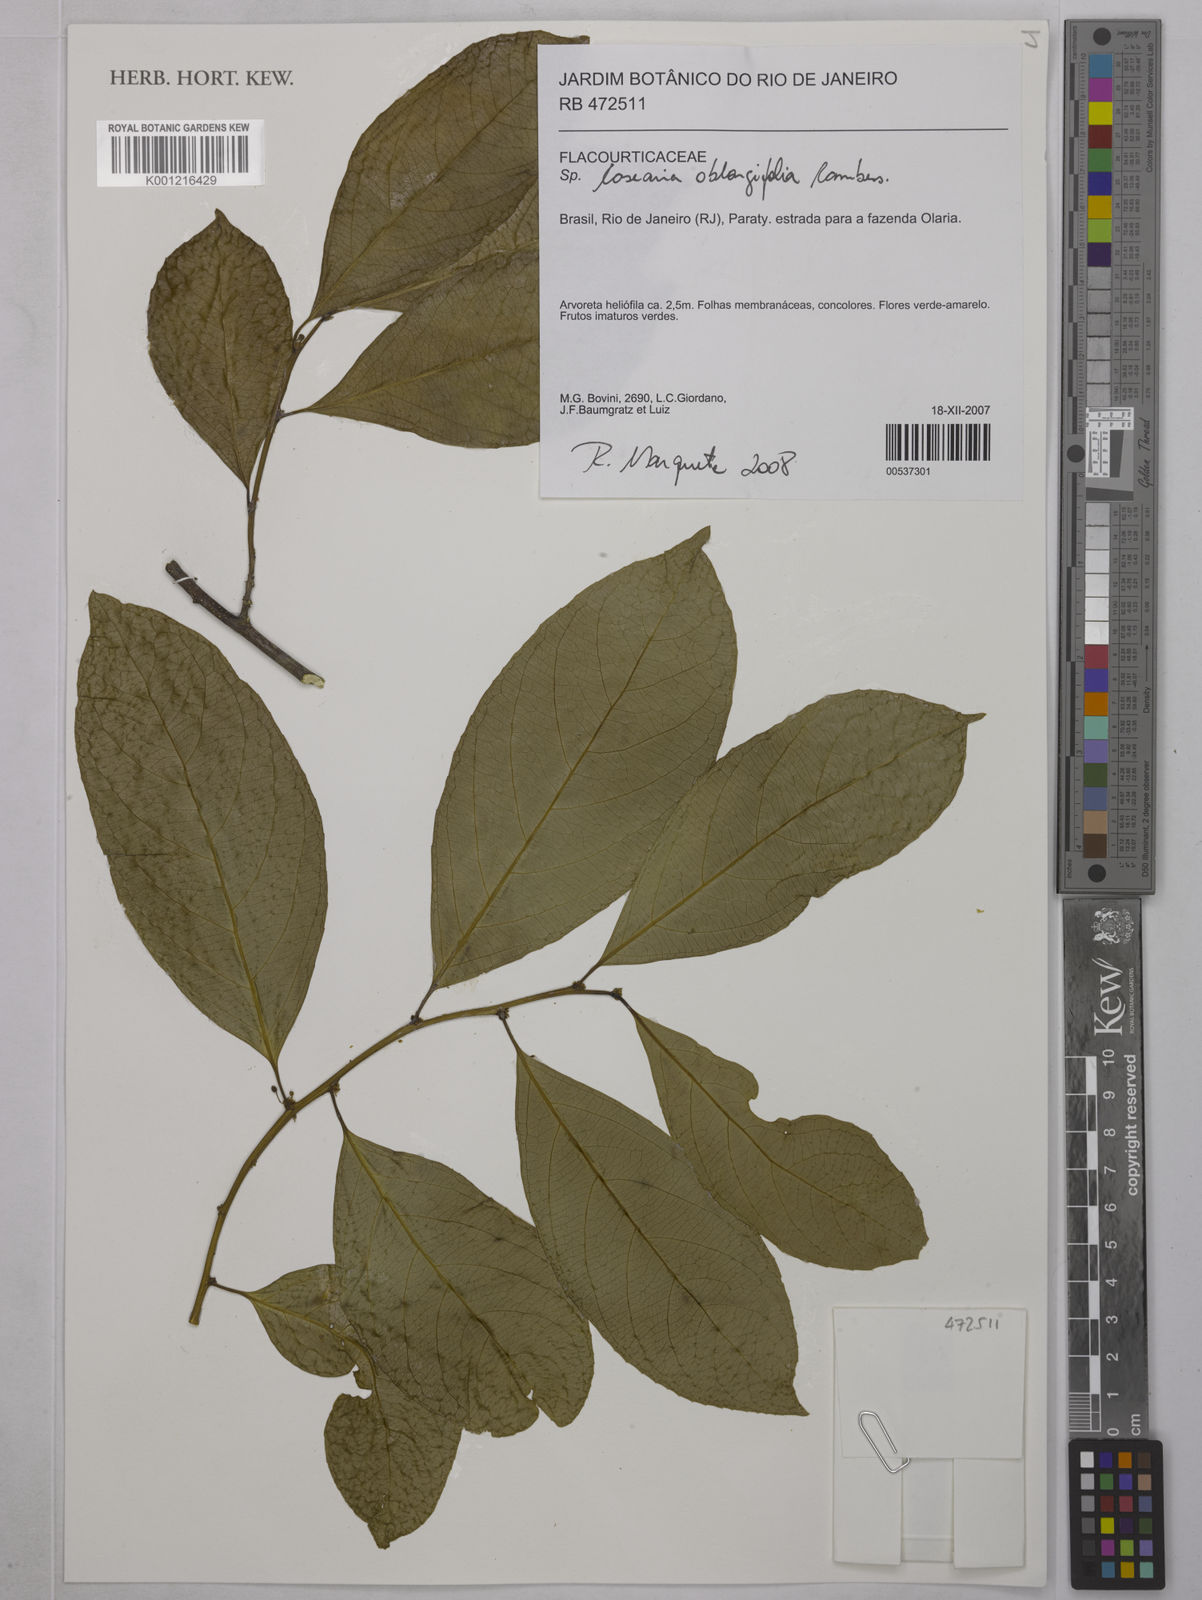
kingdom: Plantae
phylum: Tracheophyta
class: Magnoliopsida
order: Malpighiales
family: Salicaceae
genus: Casearia
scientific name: Casearia oblongifolia
